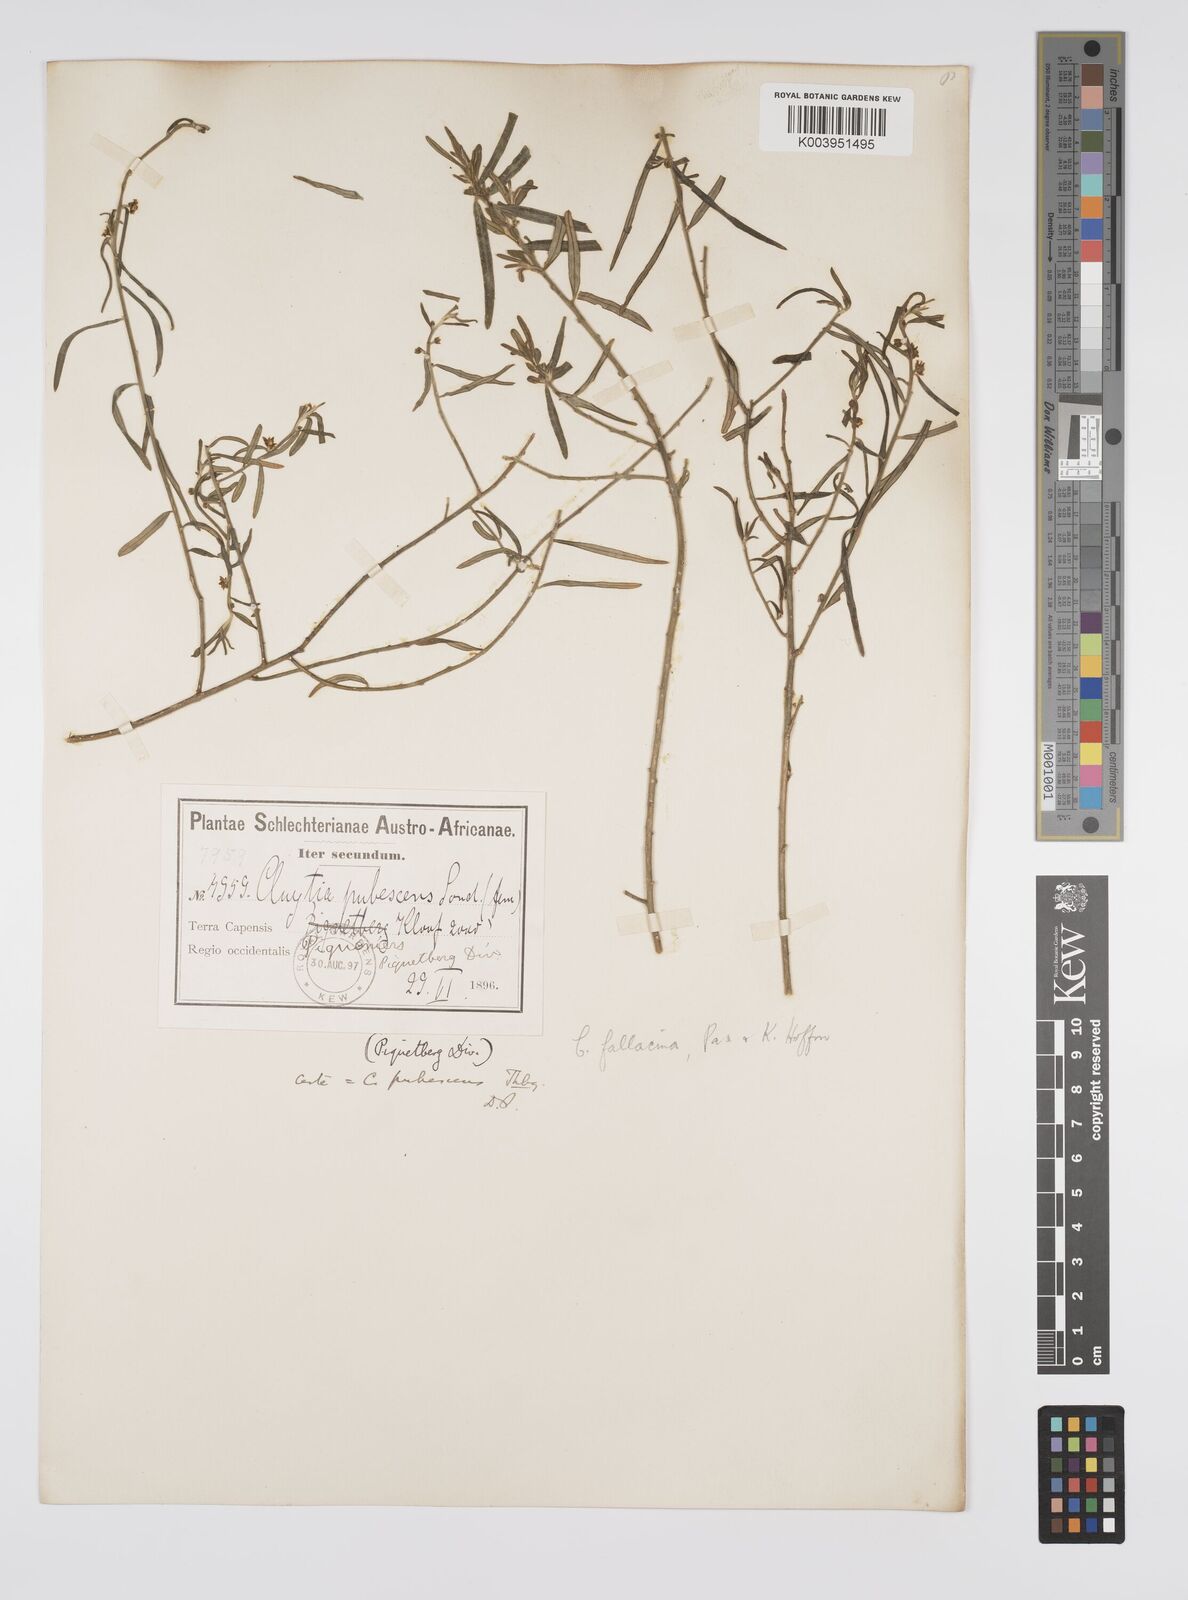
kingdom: Plantae
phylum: Tracheophyta
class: Magnoliopsida
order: Malpighiales
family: Peraceae
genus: Clutia
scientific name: Clutia
